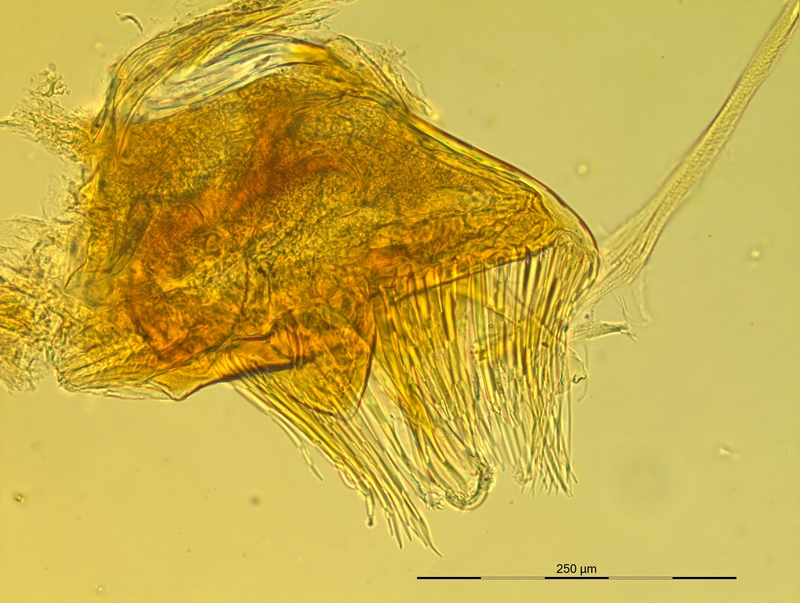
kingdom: Animalia
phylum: Arthropoda
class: Diplopoda
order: Chordeumatida
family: Craspedosomatidae
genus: Pyrgocyphosoma
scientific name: Pyrgocyphosoma dalmazzense
